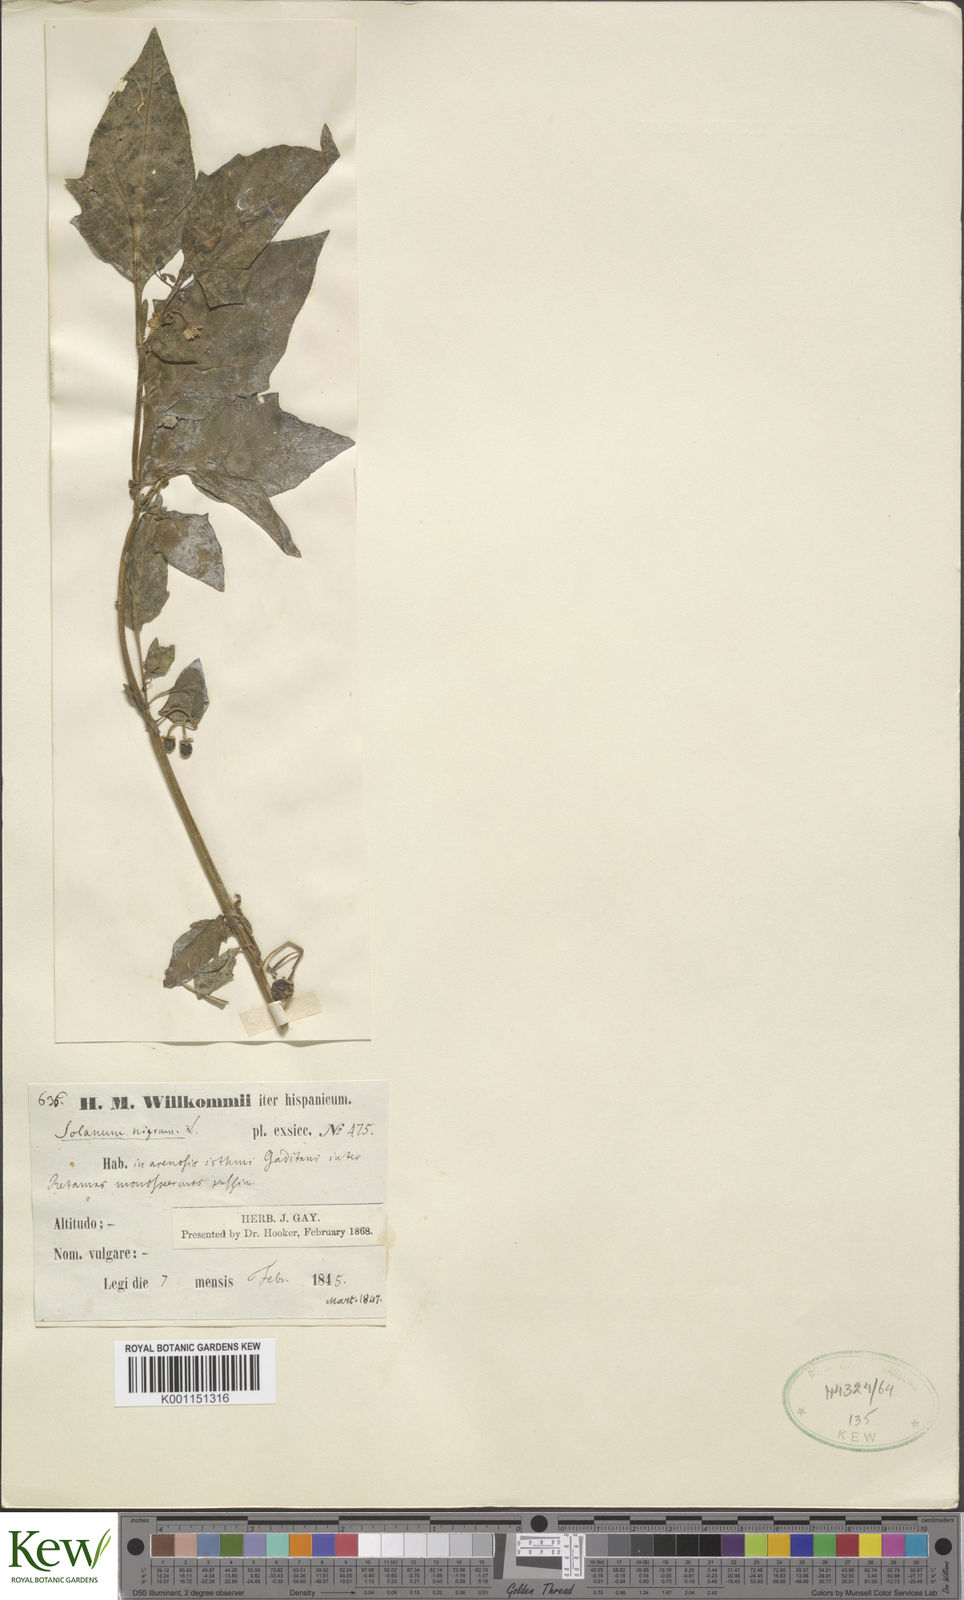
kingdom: Plantae
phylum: Tracheophyta
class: Magnoliopsida
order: Solanales
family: Solanaceae
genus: Solanum
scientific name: Solanum nigrum
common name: Black nightshade
